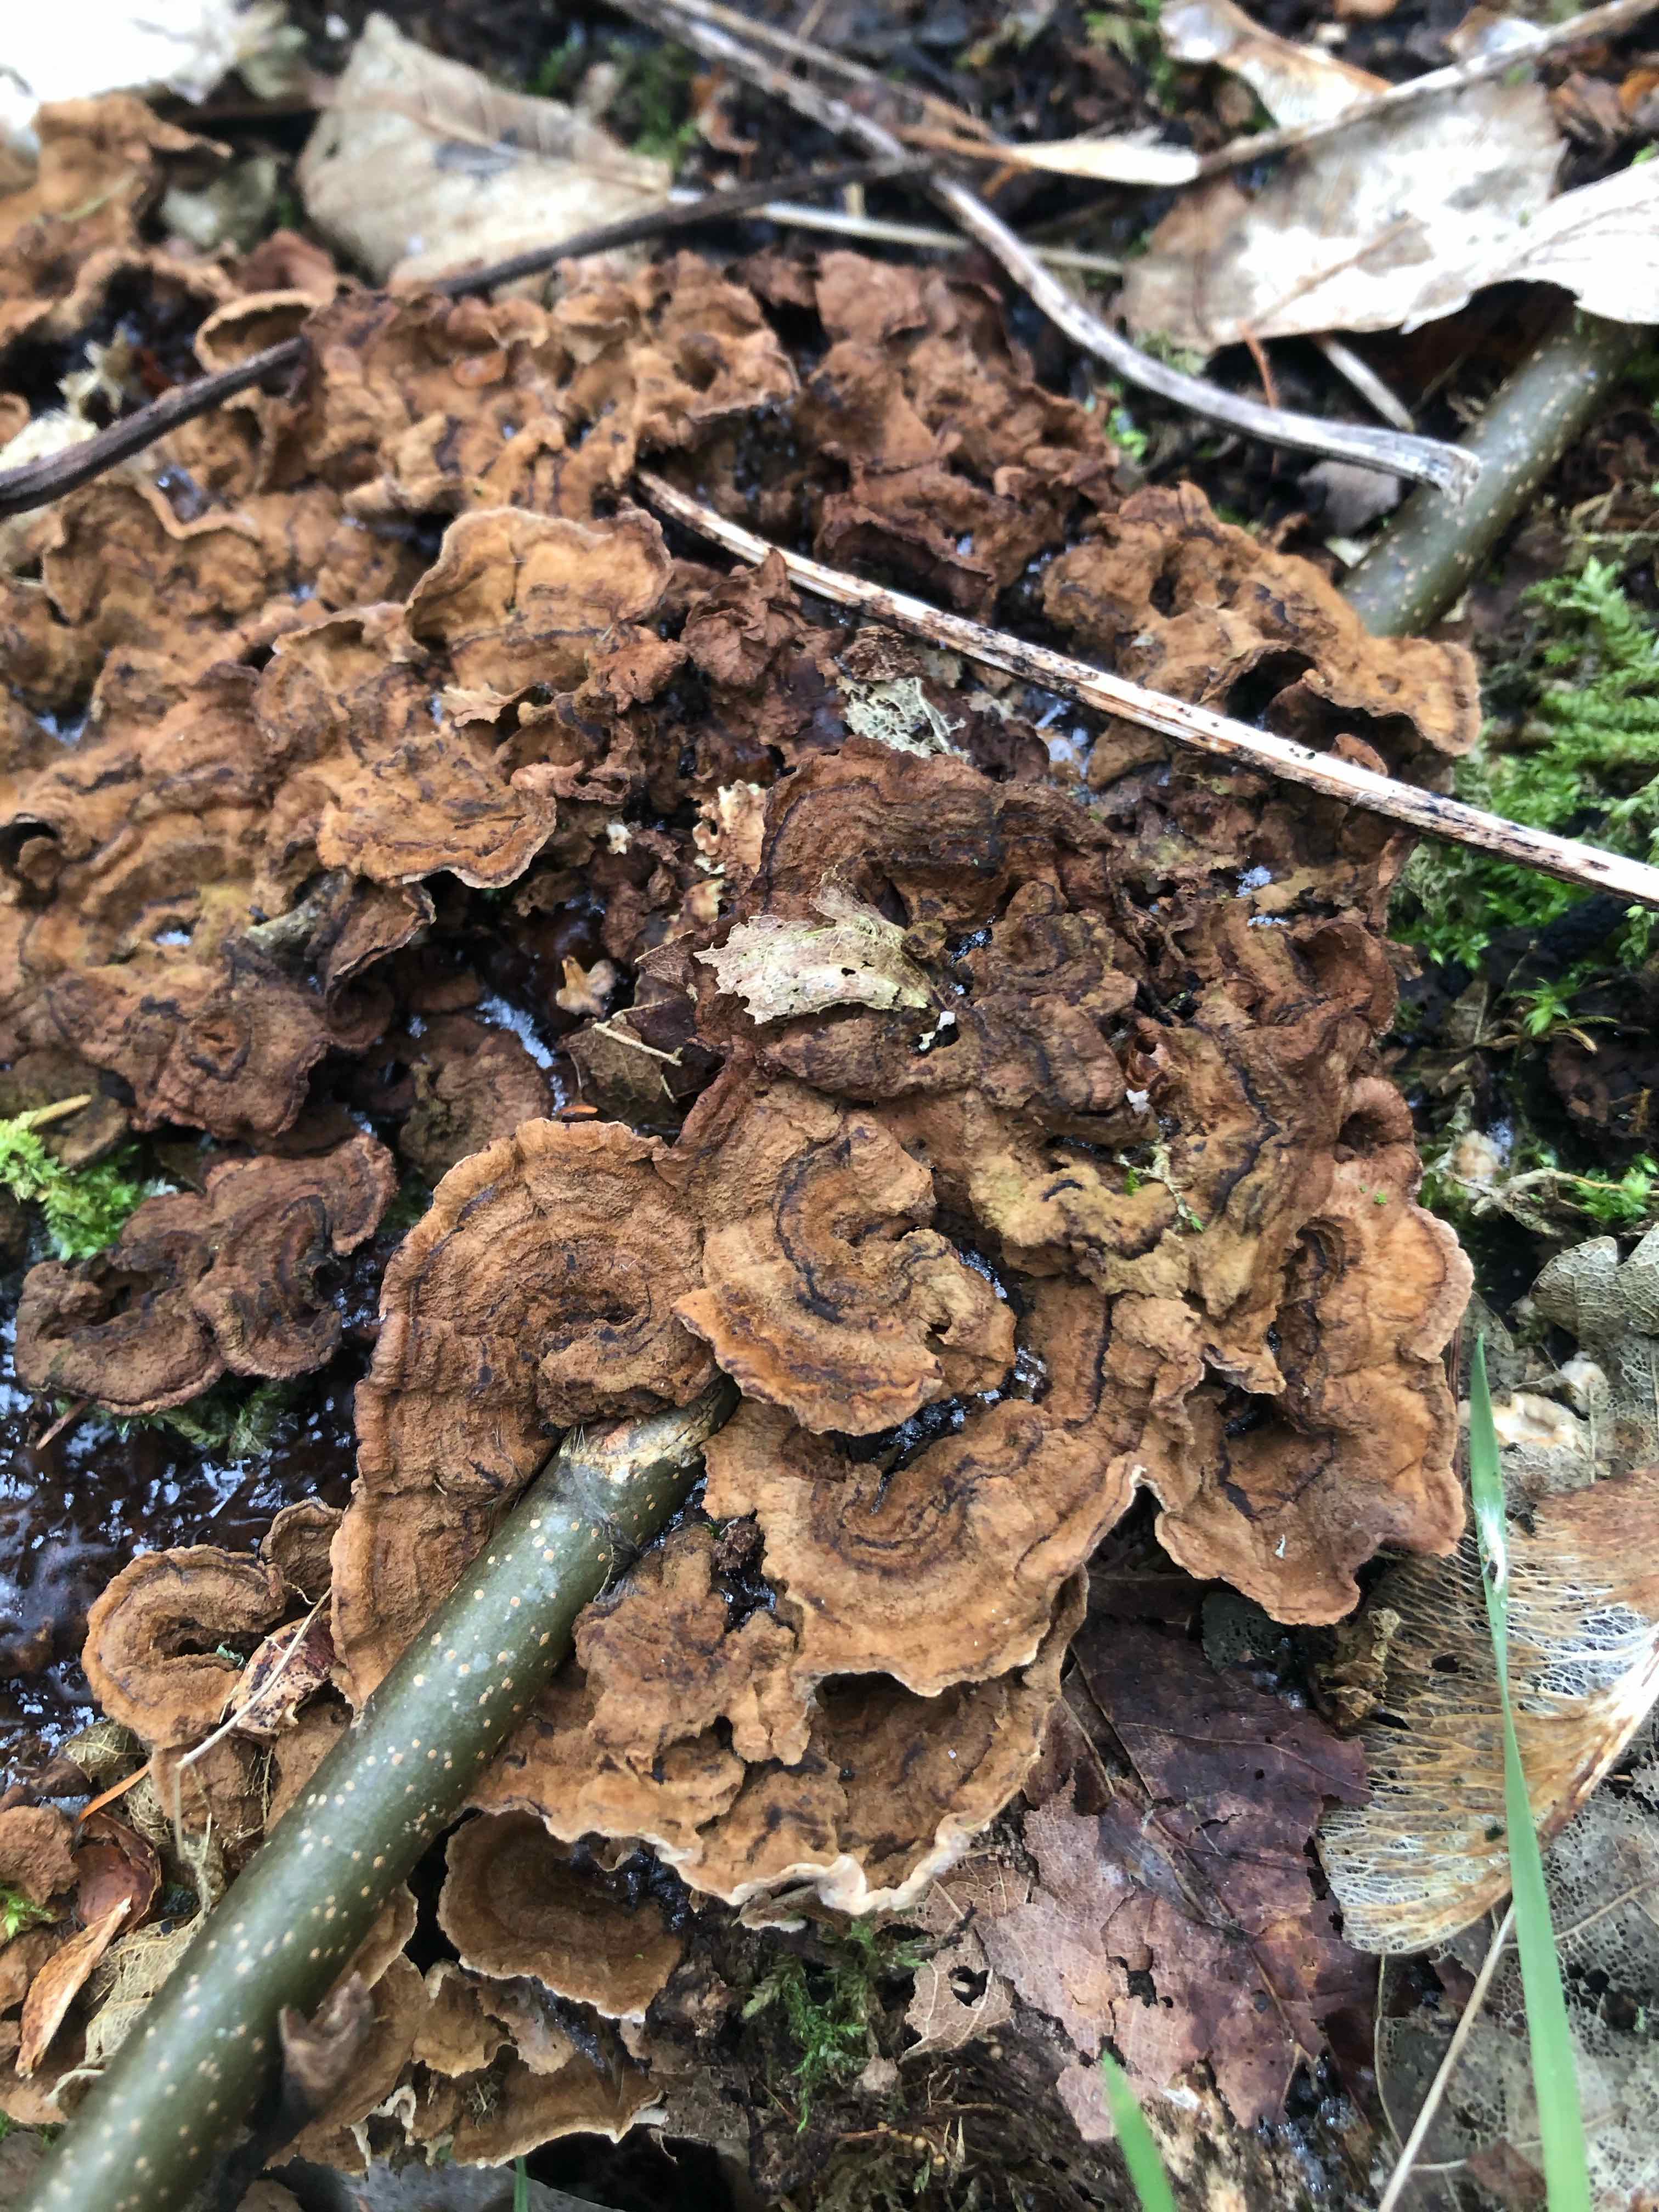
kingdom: Fungi
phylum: Basidiomycota
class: Agaricomycetes
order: Russulales
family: Hericiaceae
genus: Laxitextum
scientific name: Laxitextum bicolor
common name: tvefarvet filtskind
